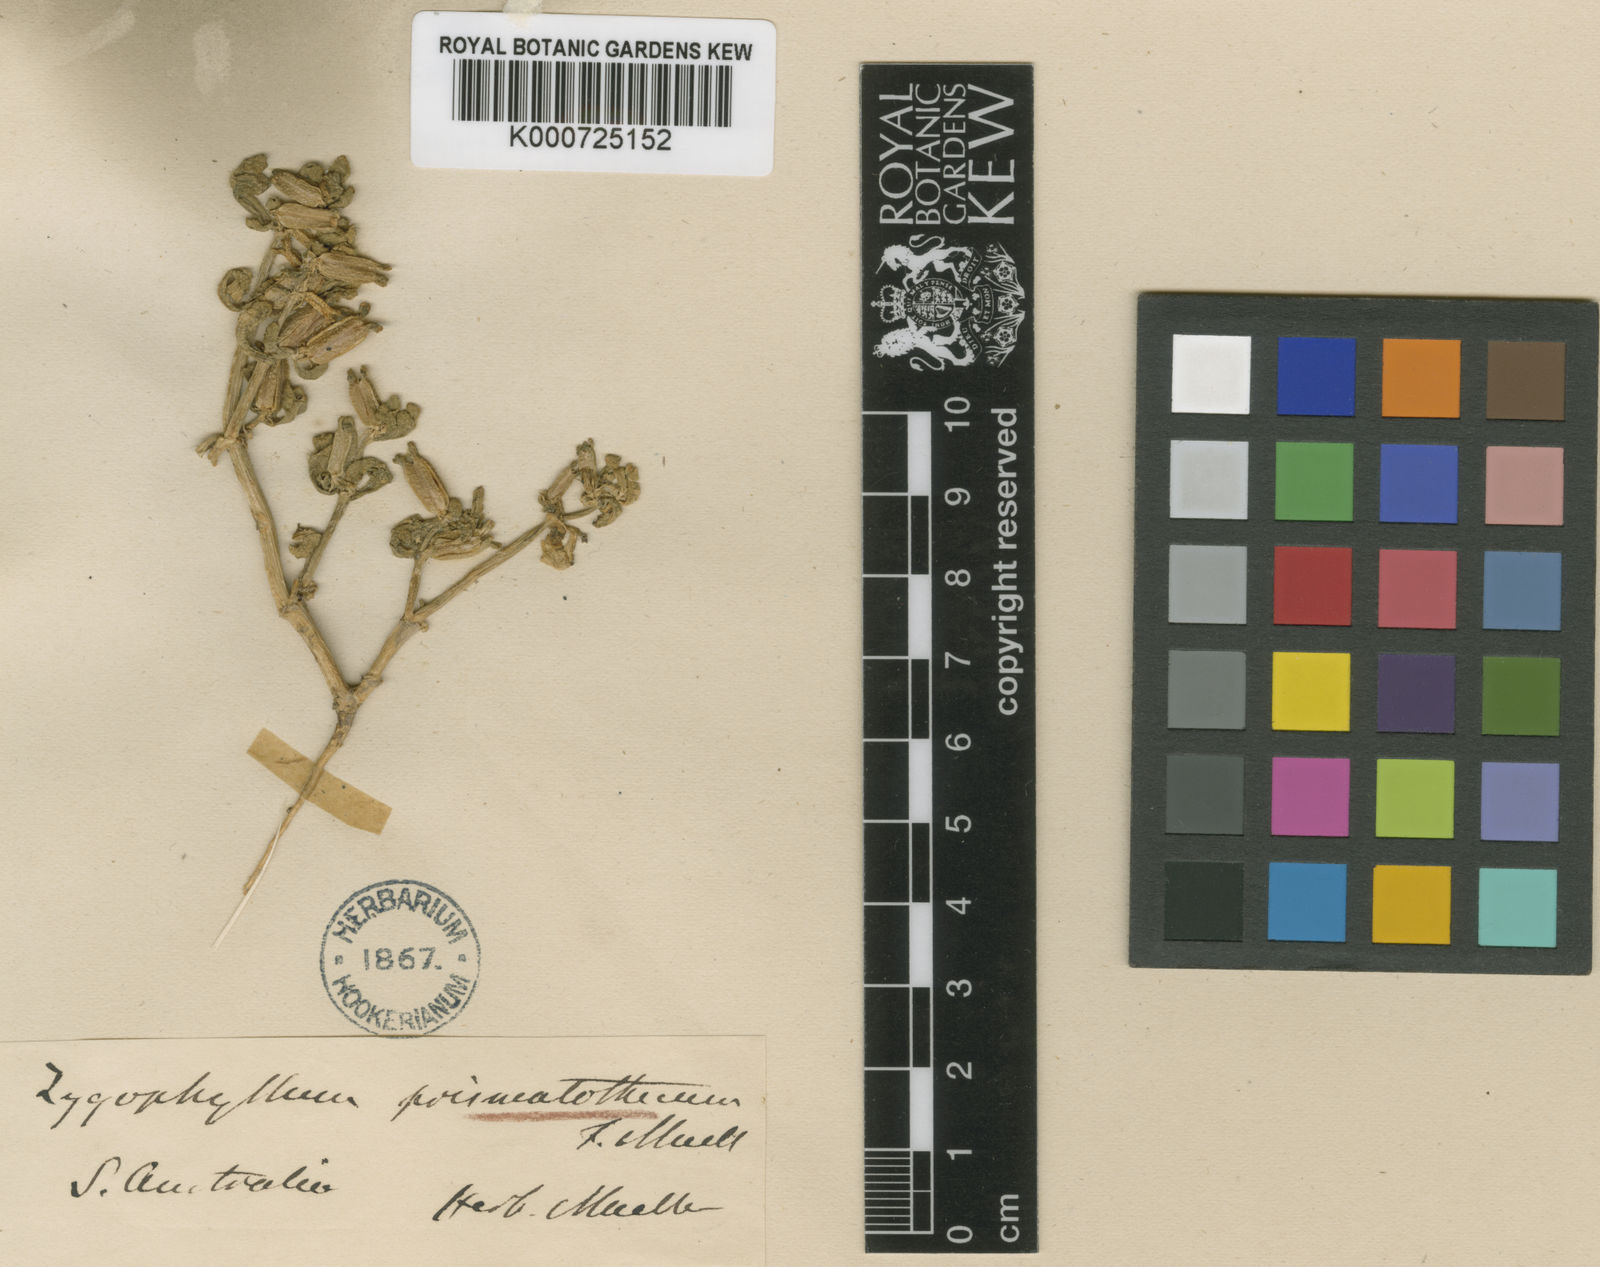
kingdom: Plantae
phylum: Tracheophyta
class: Magnoliopsida
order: Zygophyllales
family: Zygophyllaceae
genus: Roepera
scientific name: Roepera prismatotheca
